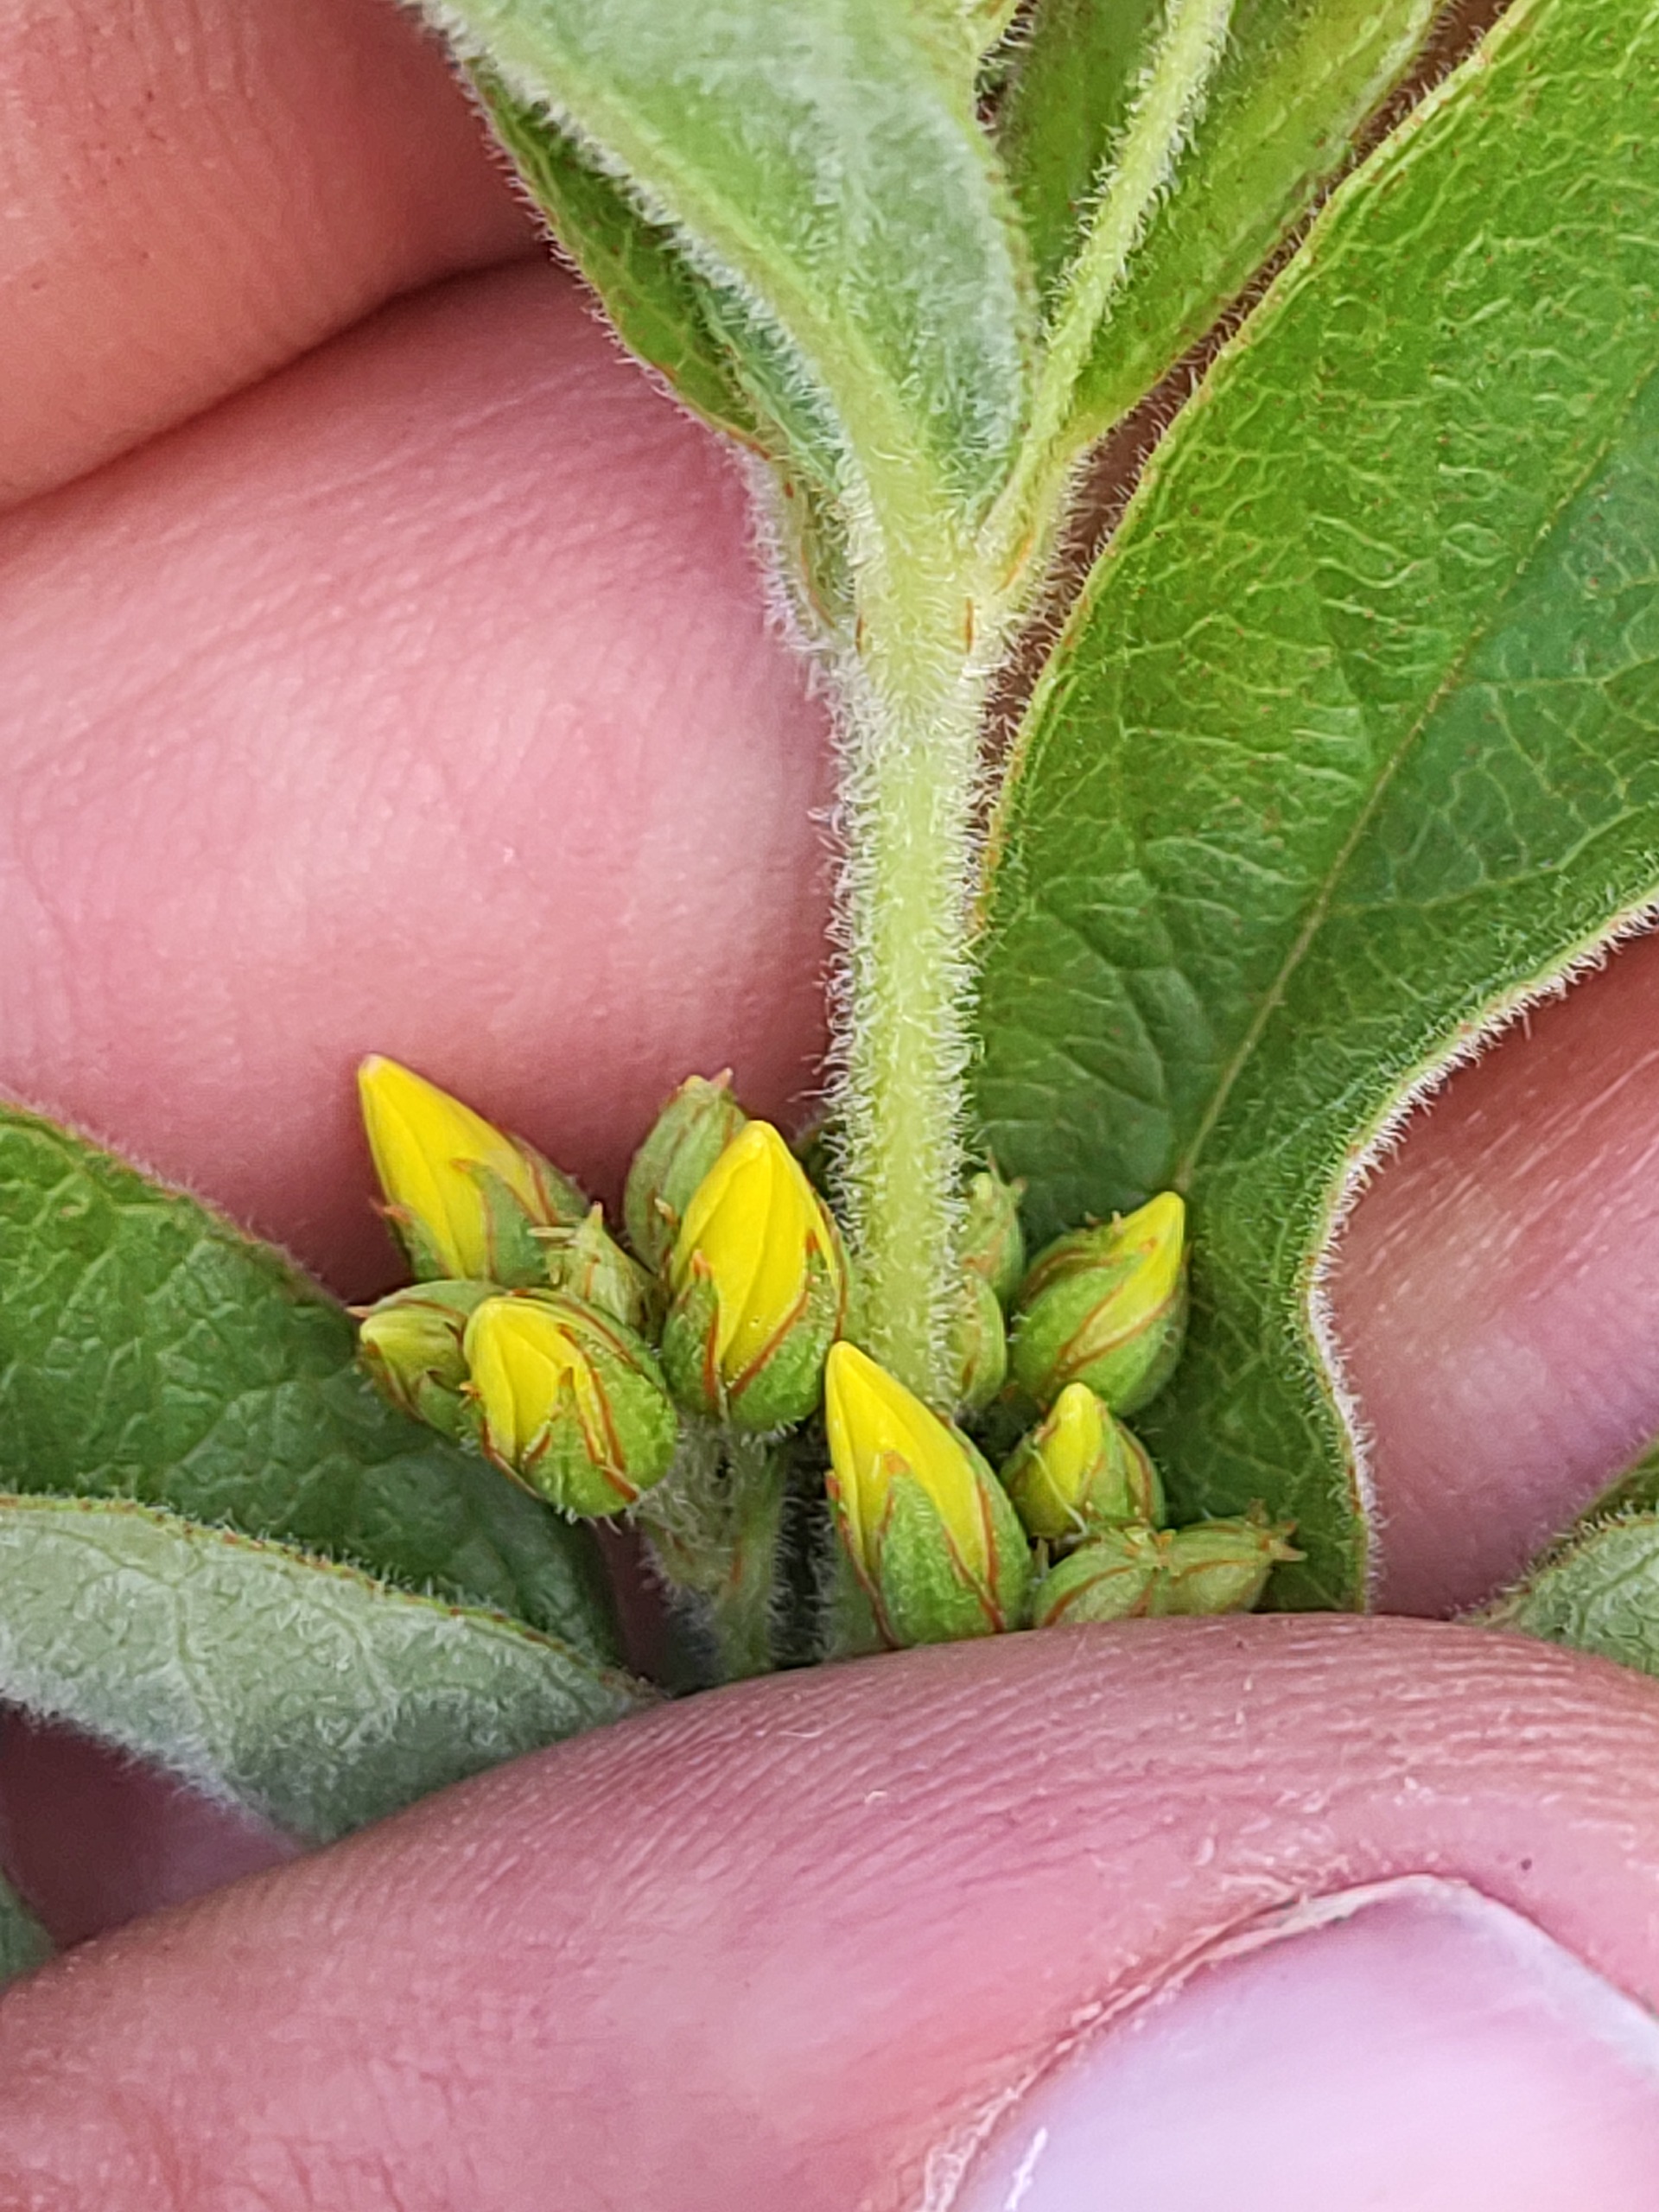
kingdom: Plantae
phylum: Tracheophyta
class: Magnoliopsida
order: Ericales
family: Primulaceae
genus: Lysimachia
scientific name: Lysimachia vulgaris
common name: Almindelig fredløs
